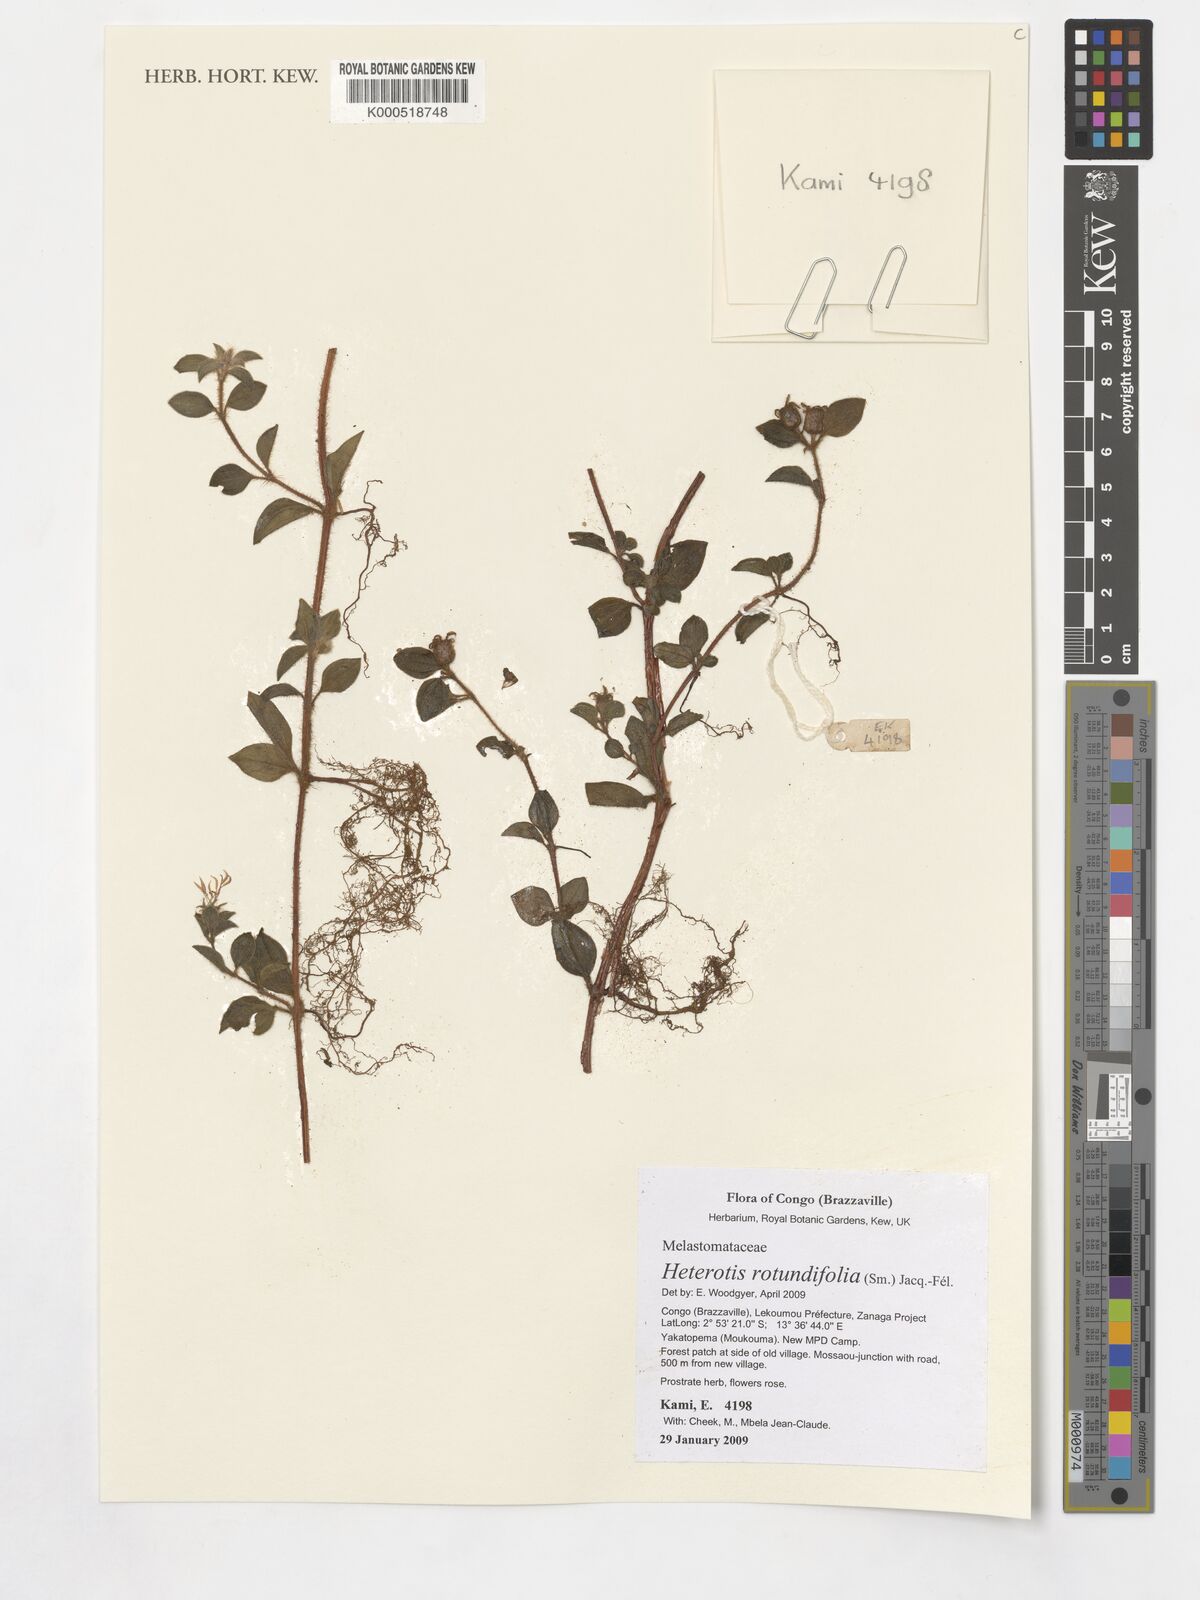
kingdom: Plantae
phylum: Tracheophyta
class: Magnoliopsida
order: Myrtales
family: Melastomataceae
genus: Heterotis
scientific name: Heterotis rotundifolia
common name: Pinklady
